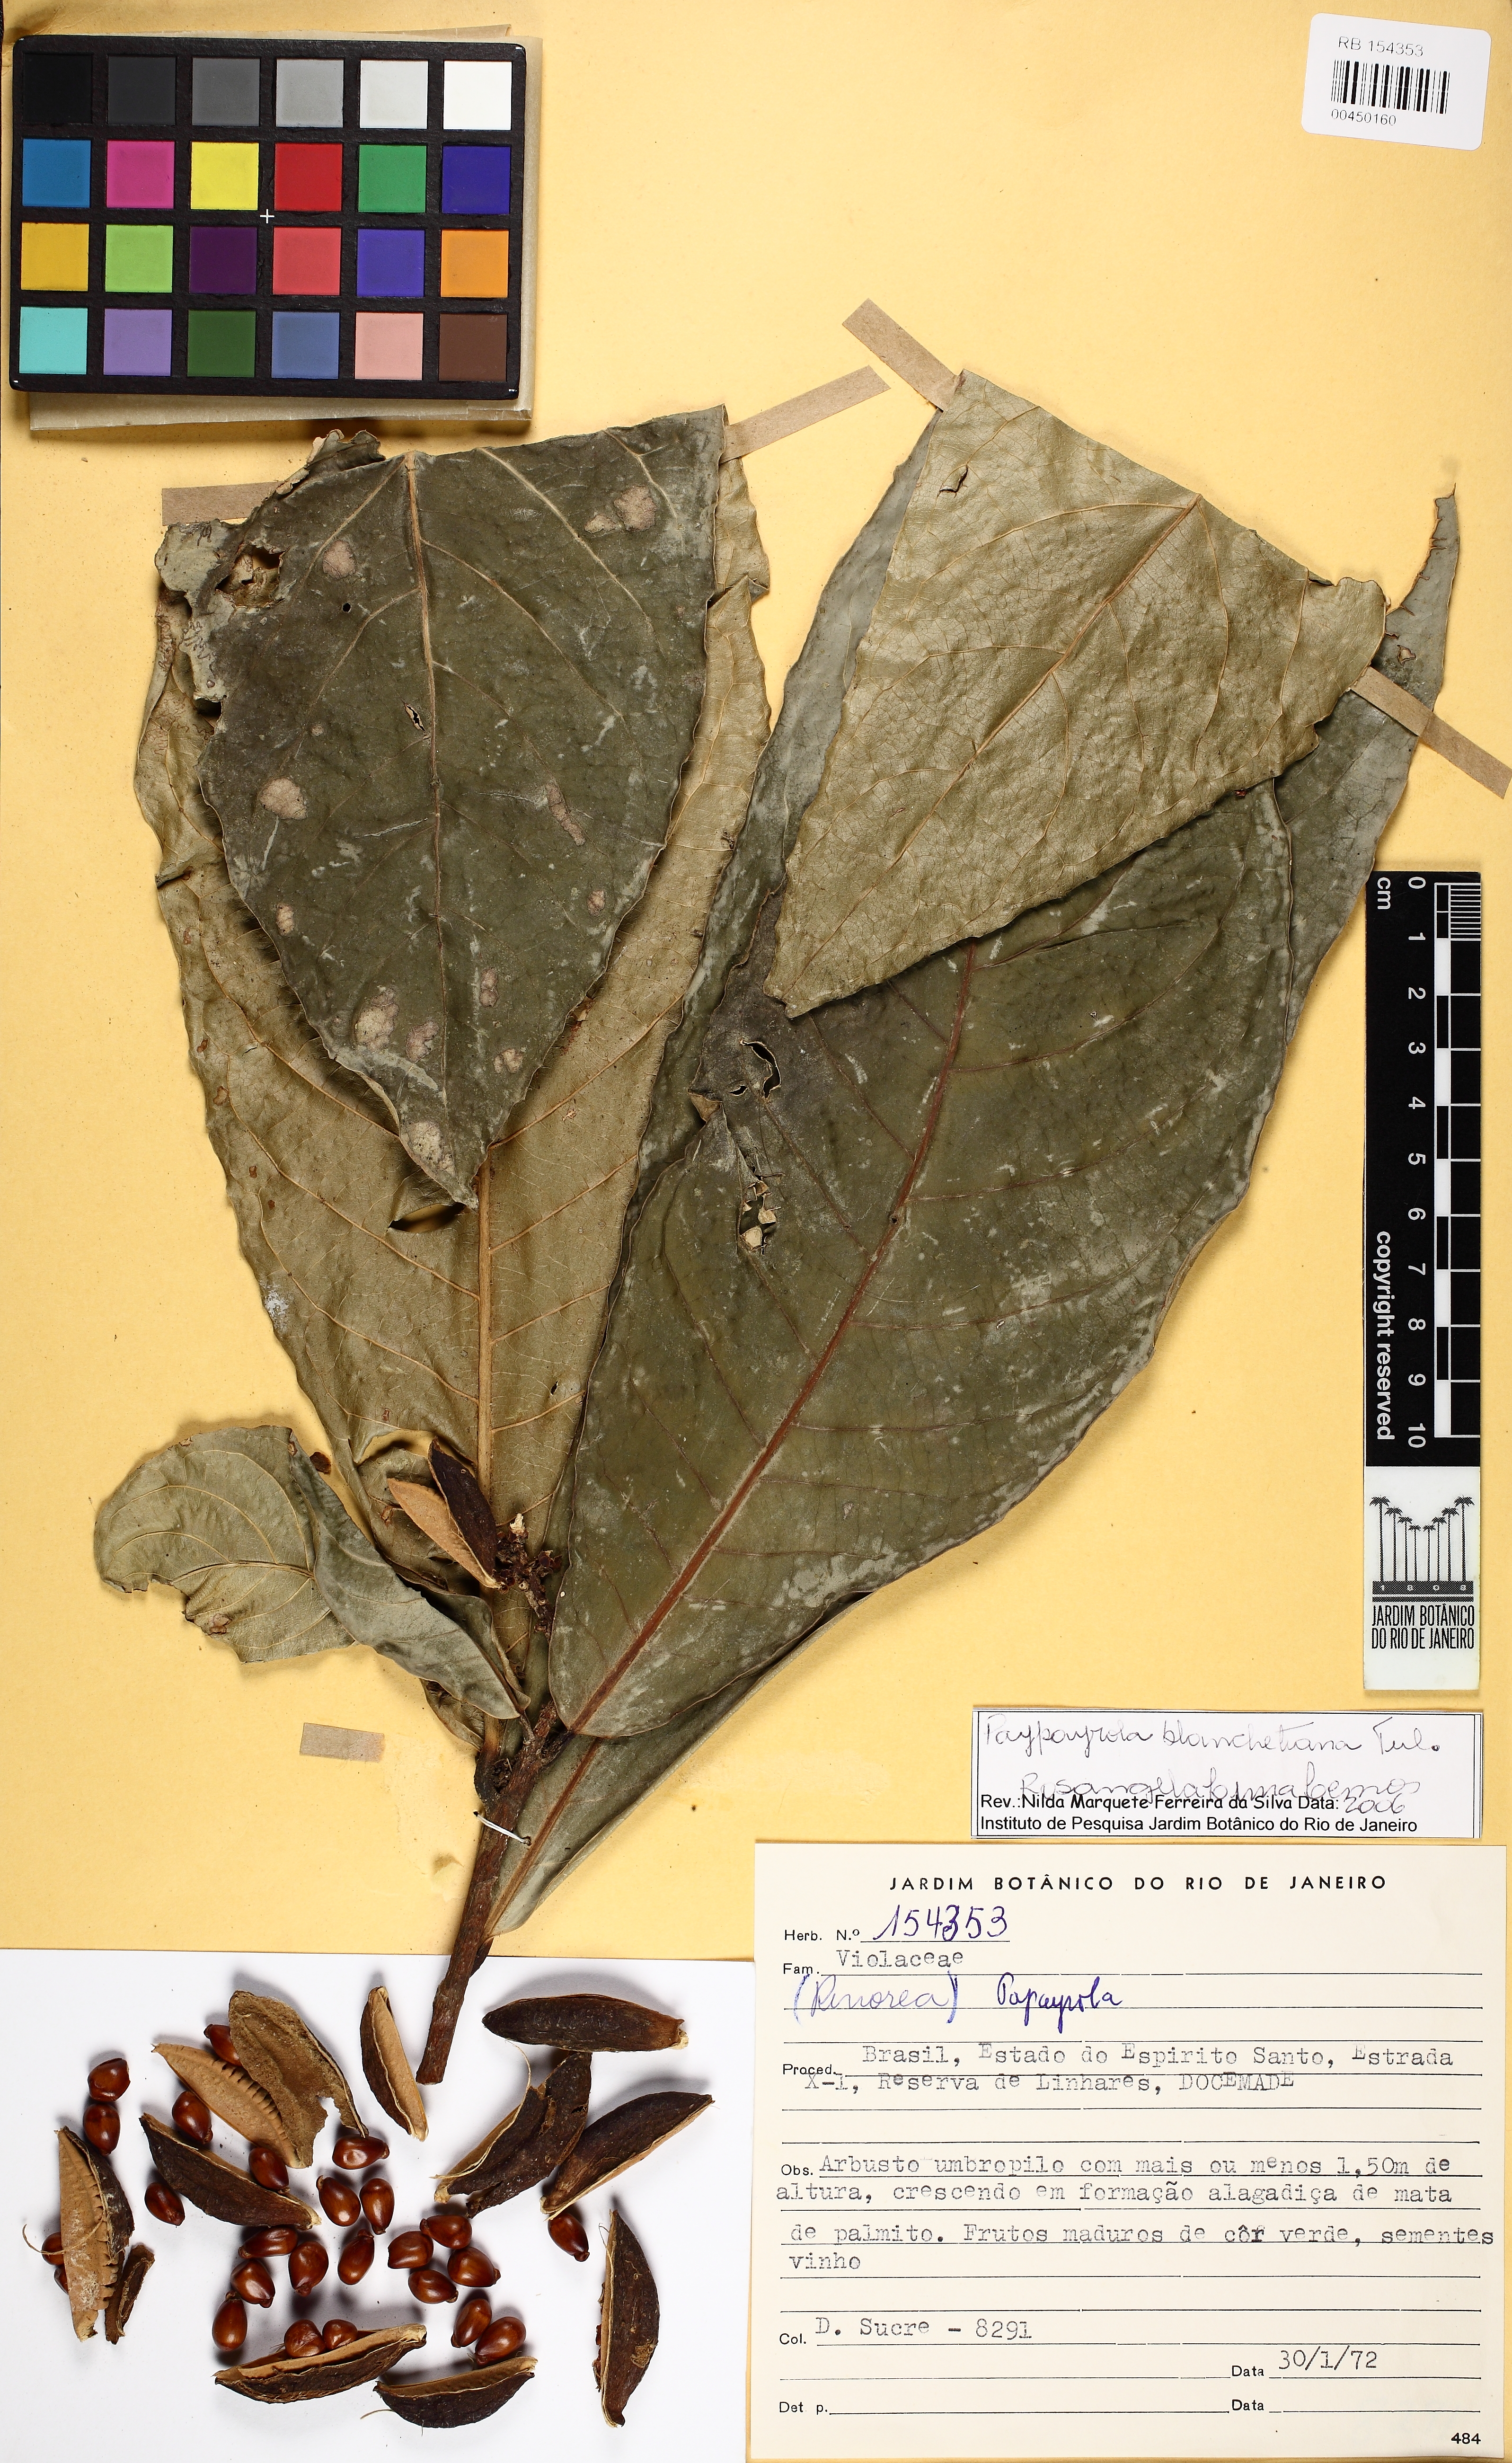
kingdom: Plantae
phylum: Tracheophyta
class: Magnoliopsida
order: Malpighiales
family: Violaceae
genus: Paypayrola
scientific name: Paypayrola blanchetiana
